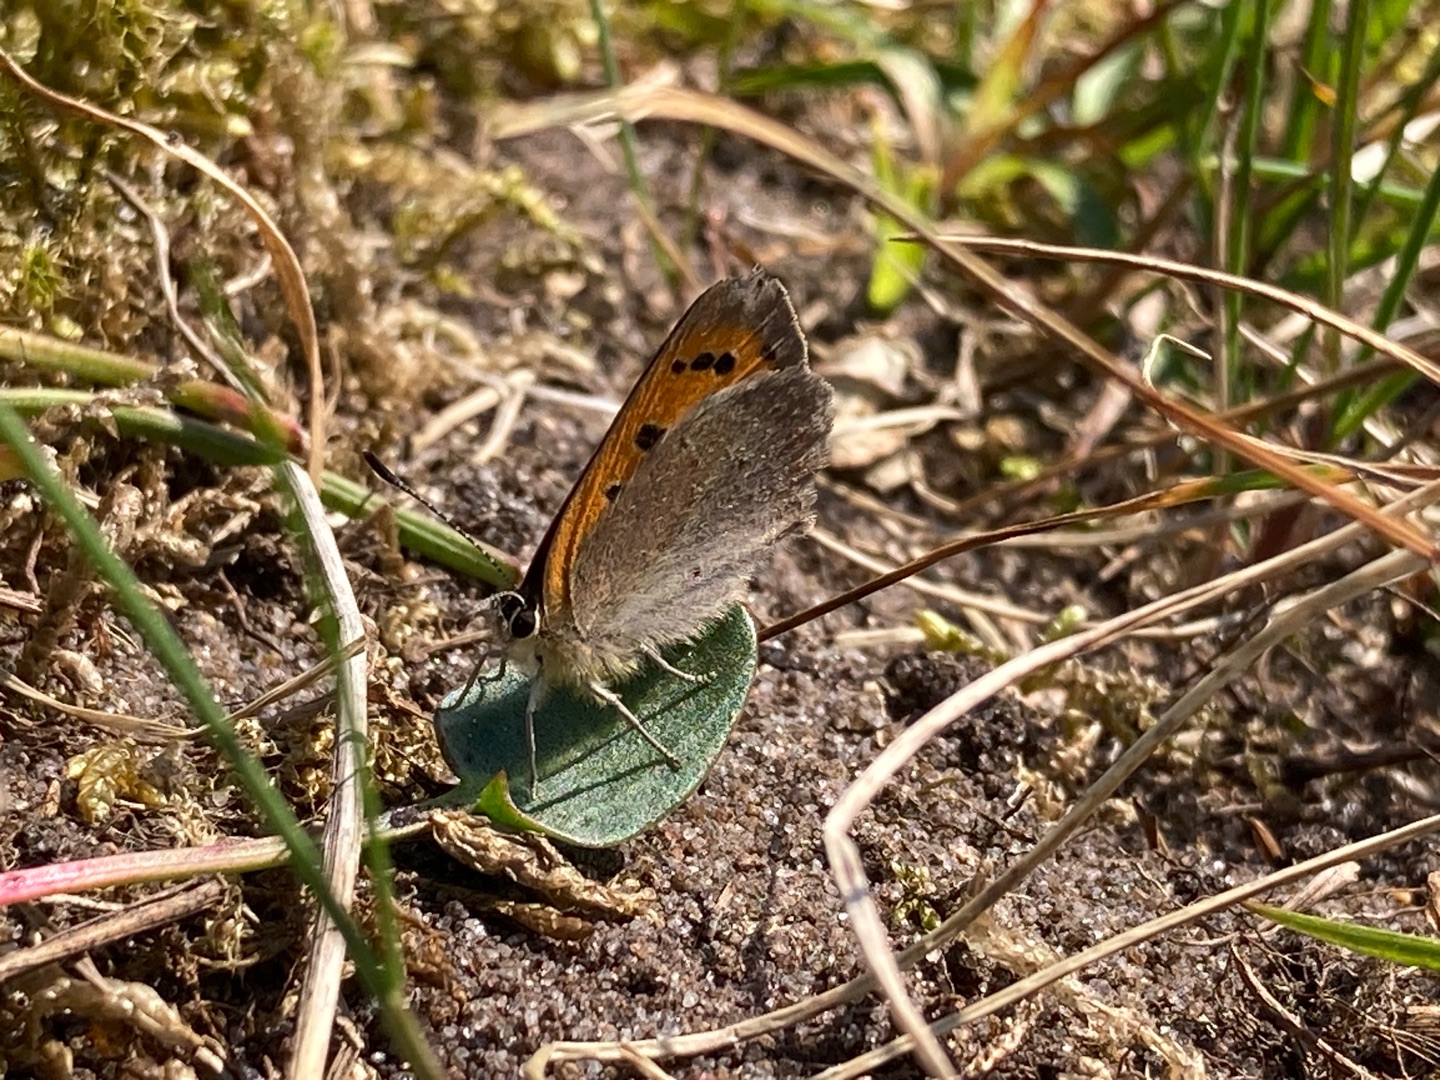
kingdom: Animalia
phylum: Arthropoda
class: Insecta
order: Lepidoptera
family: Lycaenidae
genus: Lycaena
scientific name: Lycaena phlaeas
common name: Lille ildfugl
